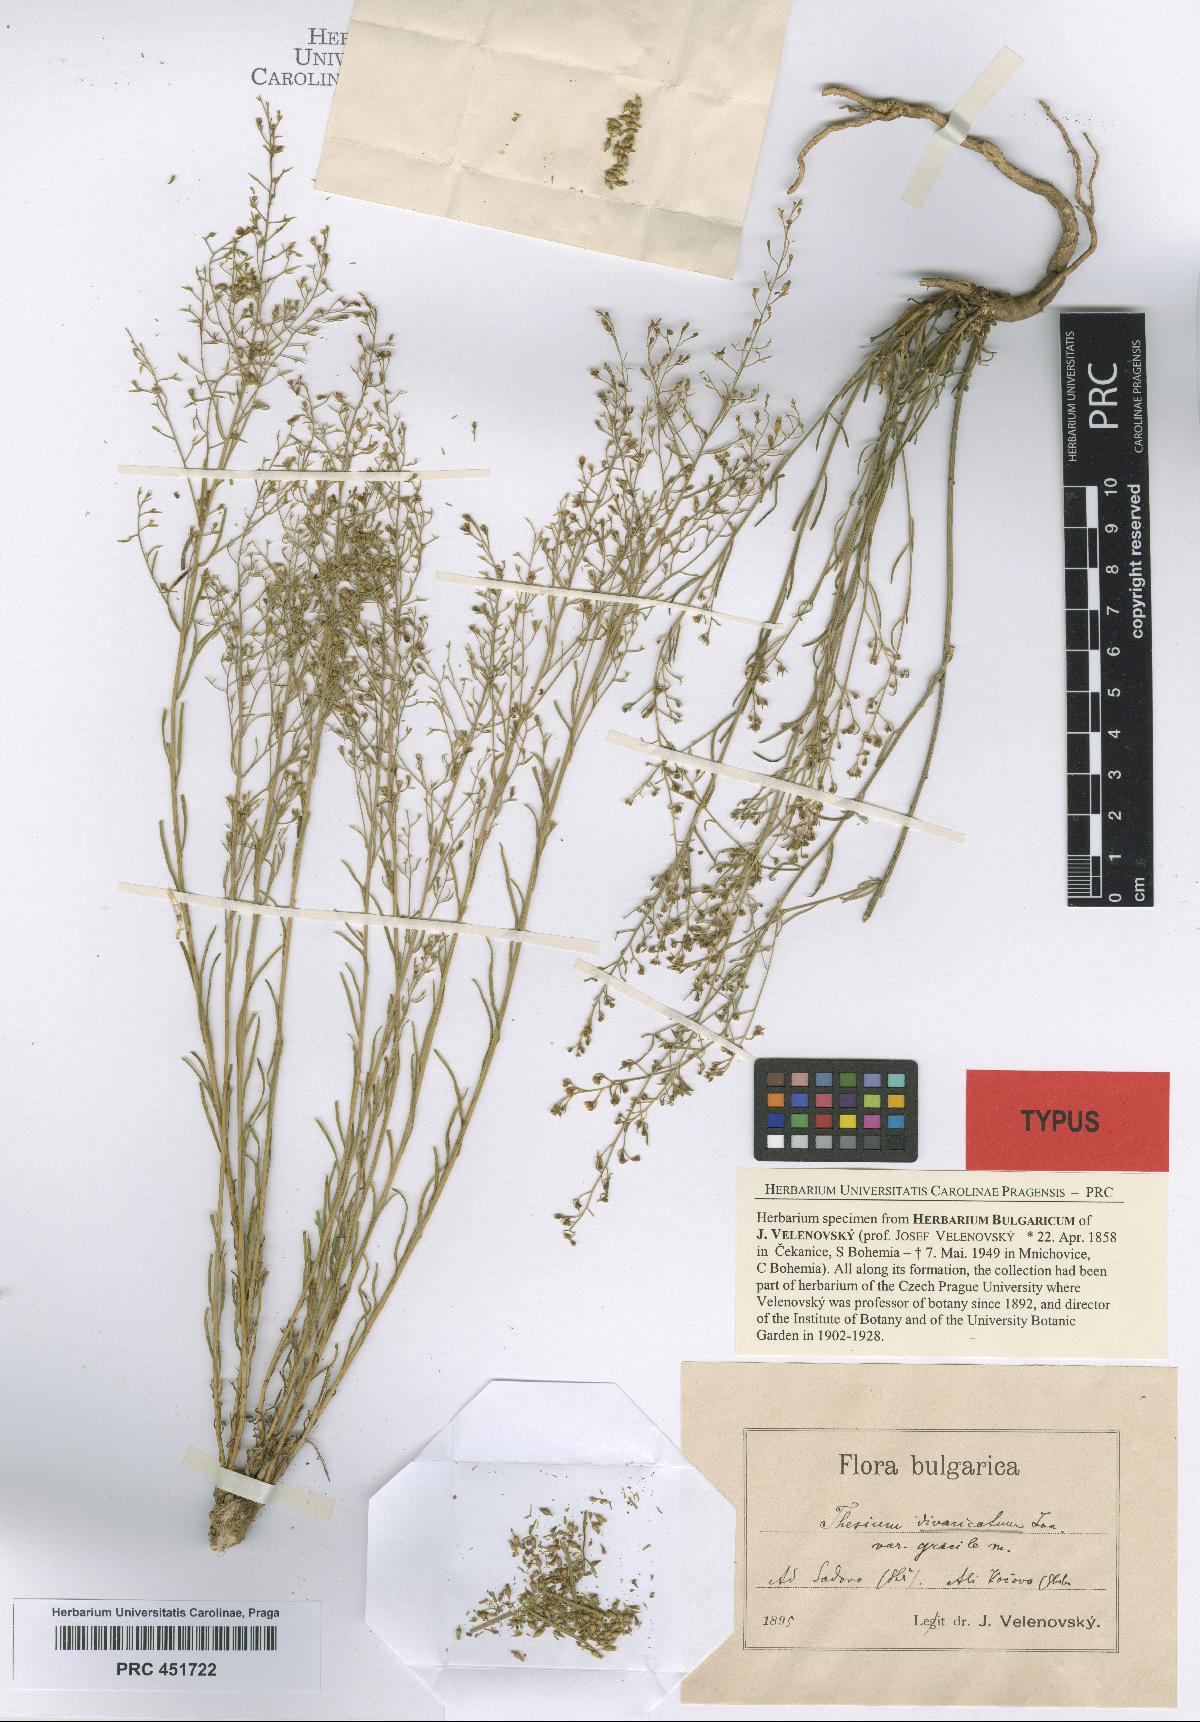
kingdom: Plantae
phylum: Tracheophyta
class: Magnoliopsida
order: Santalales
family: Thesiaceae
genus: Thesium
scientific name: Thesium divaricatum
